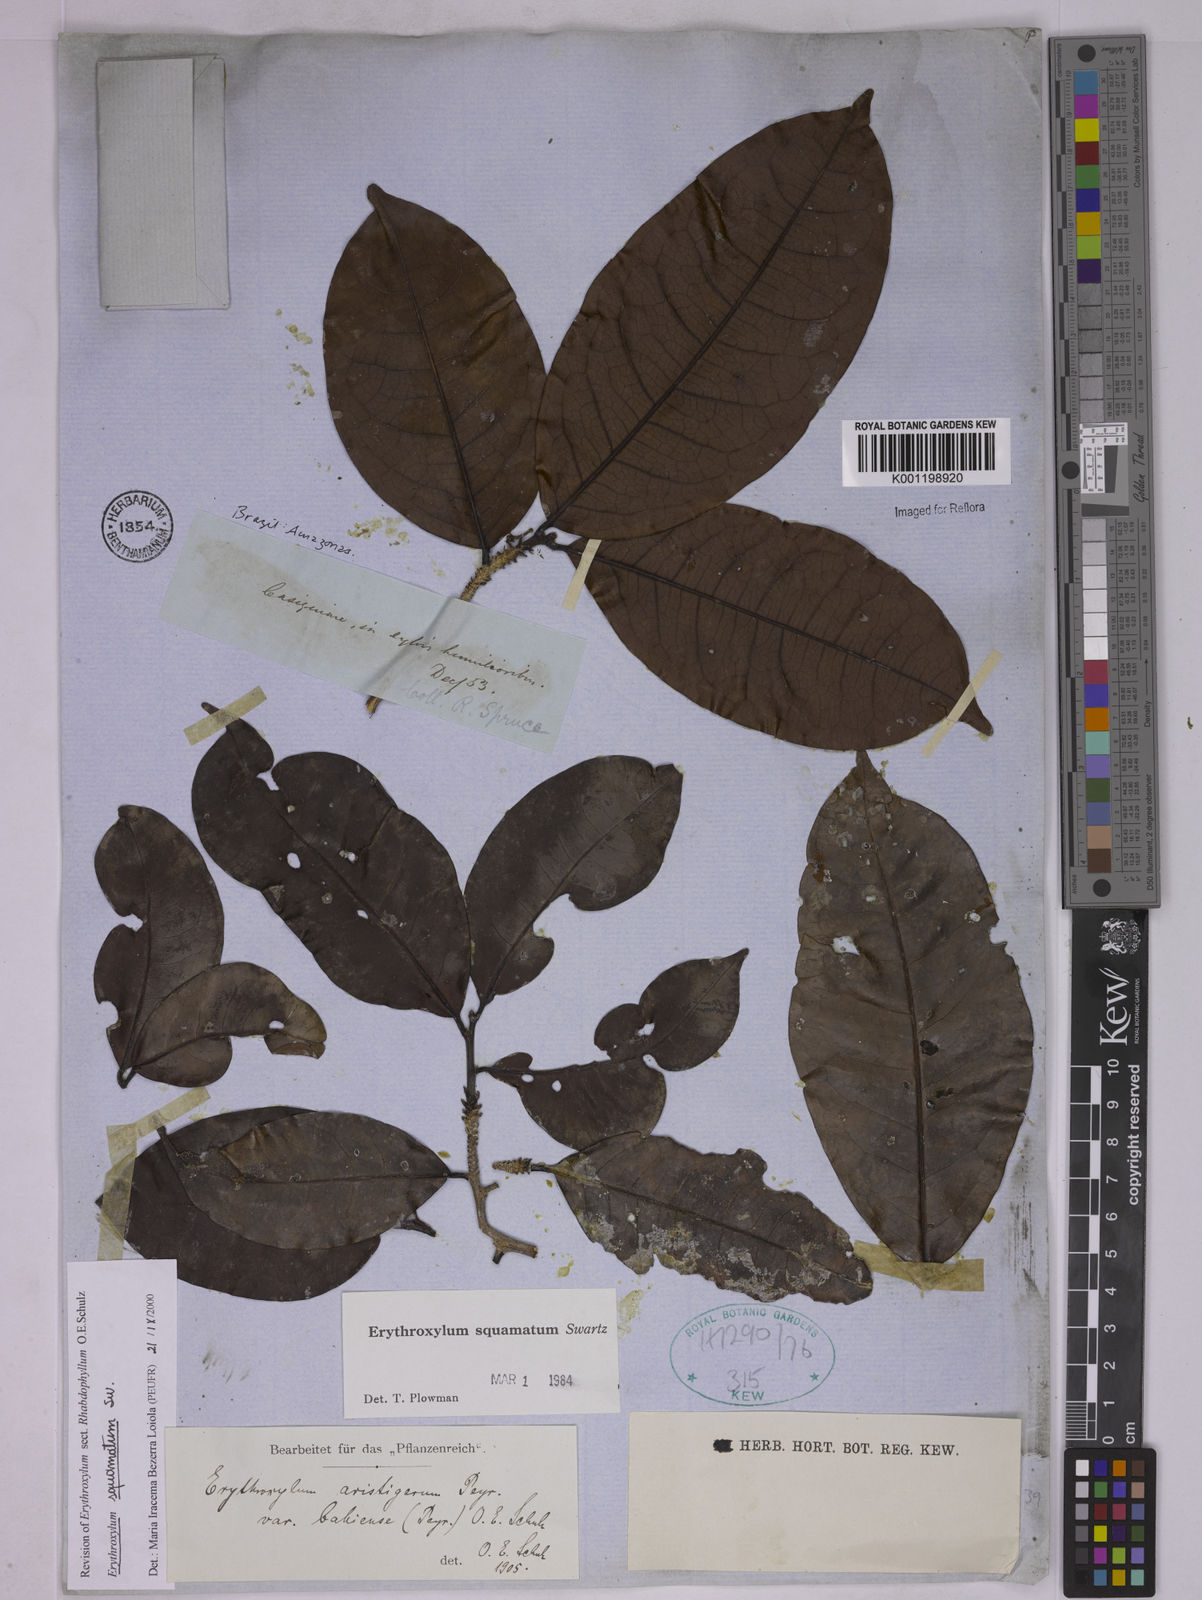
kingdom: Plantae
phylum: Tracheophyta
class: Magnoliopsida
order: Malpighiales
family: Erythroxylaceae
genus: Erythroxylum
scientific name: Erythroxylum squamatum
